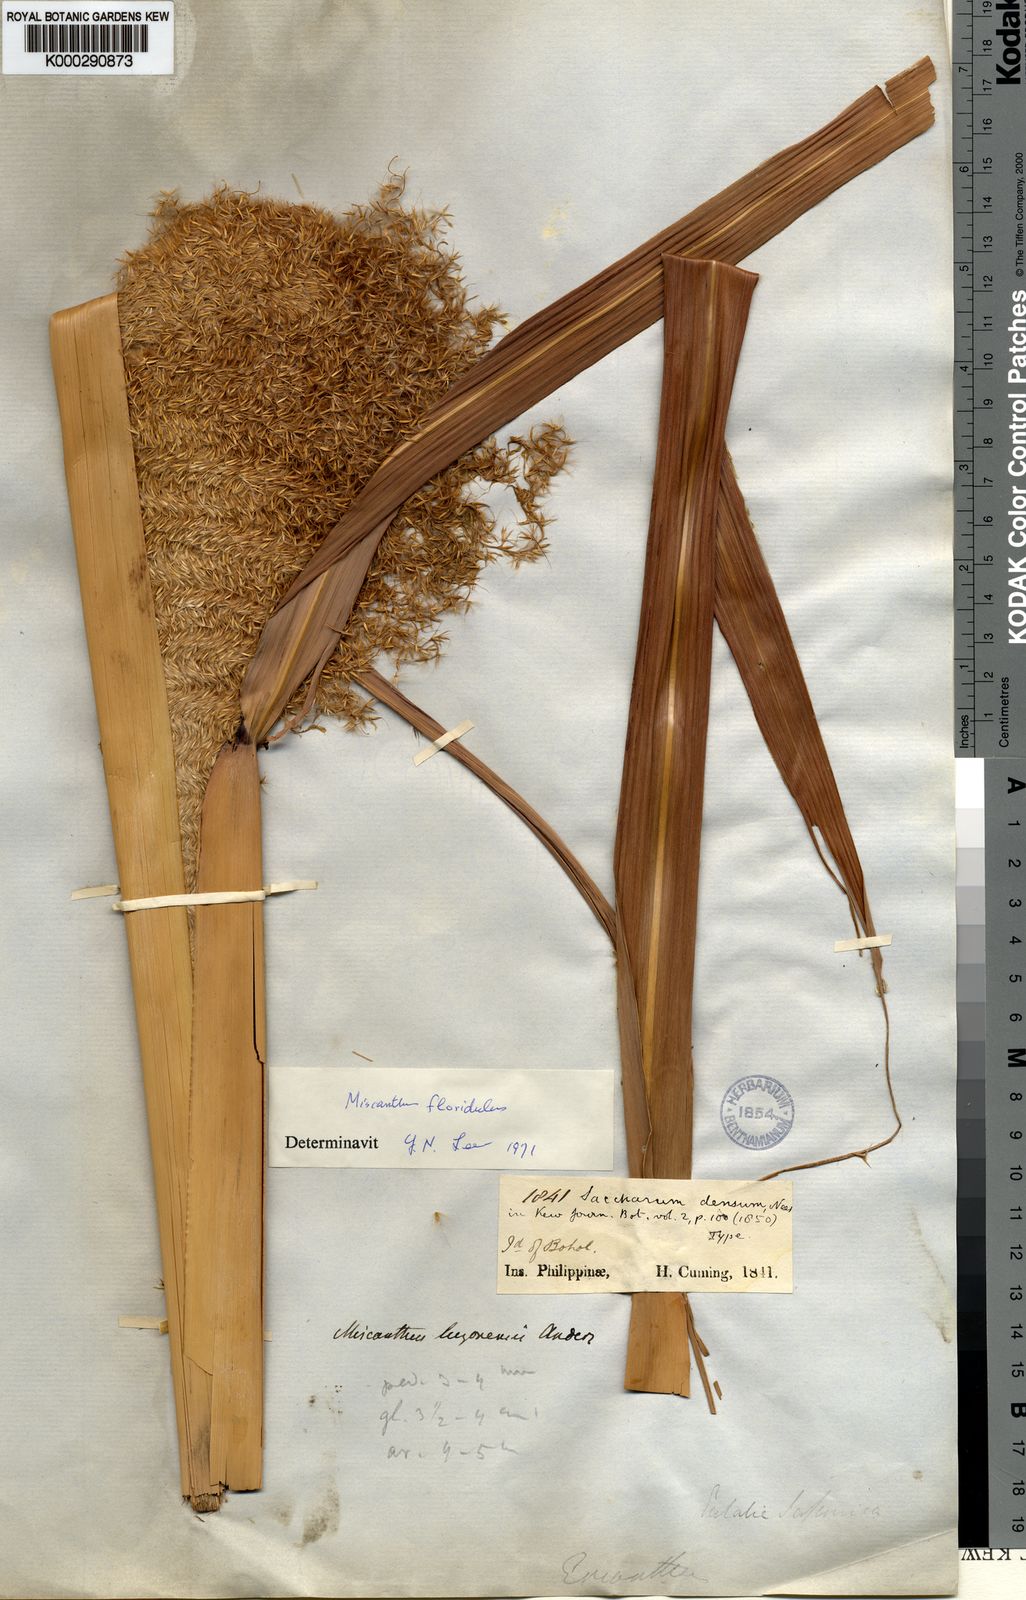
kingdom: Plantae
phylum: Tracheophyta
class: Liliopsida
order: Poales
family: Poaceae
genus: Miscanthus
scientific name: Miscanthus floridulus
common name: Pacific island silvergrass
